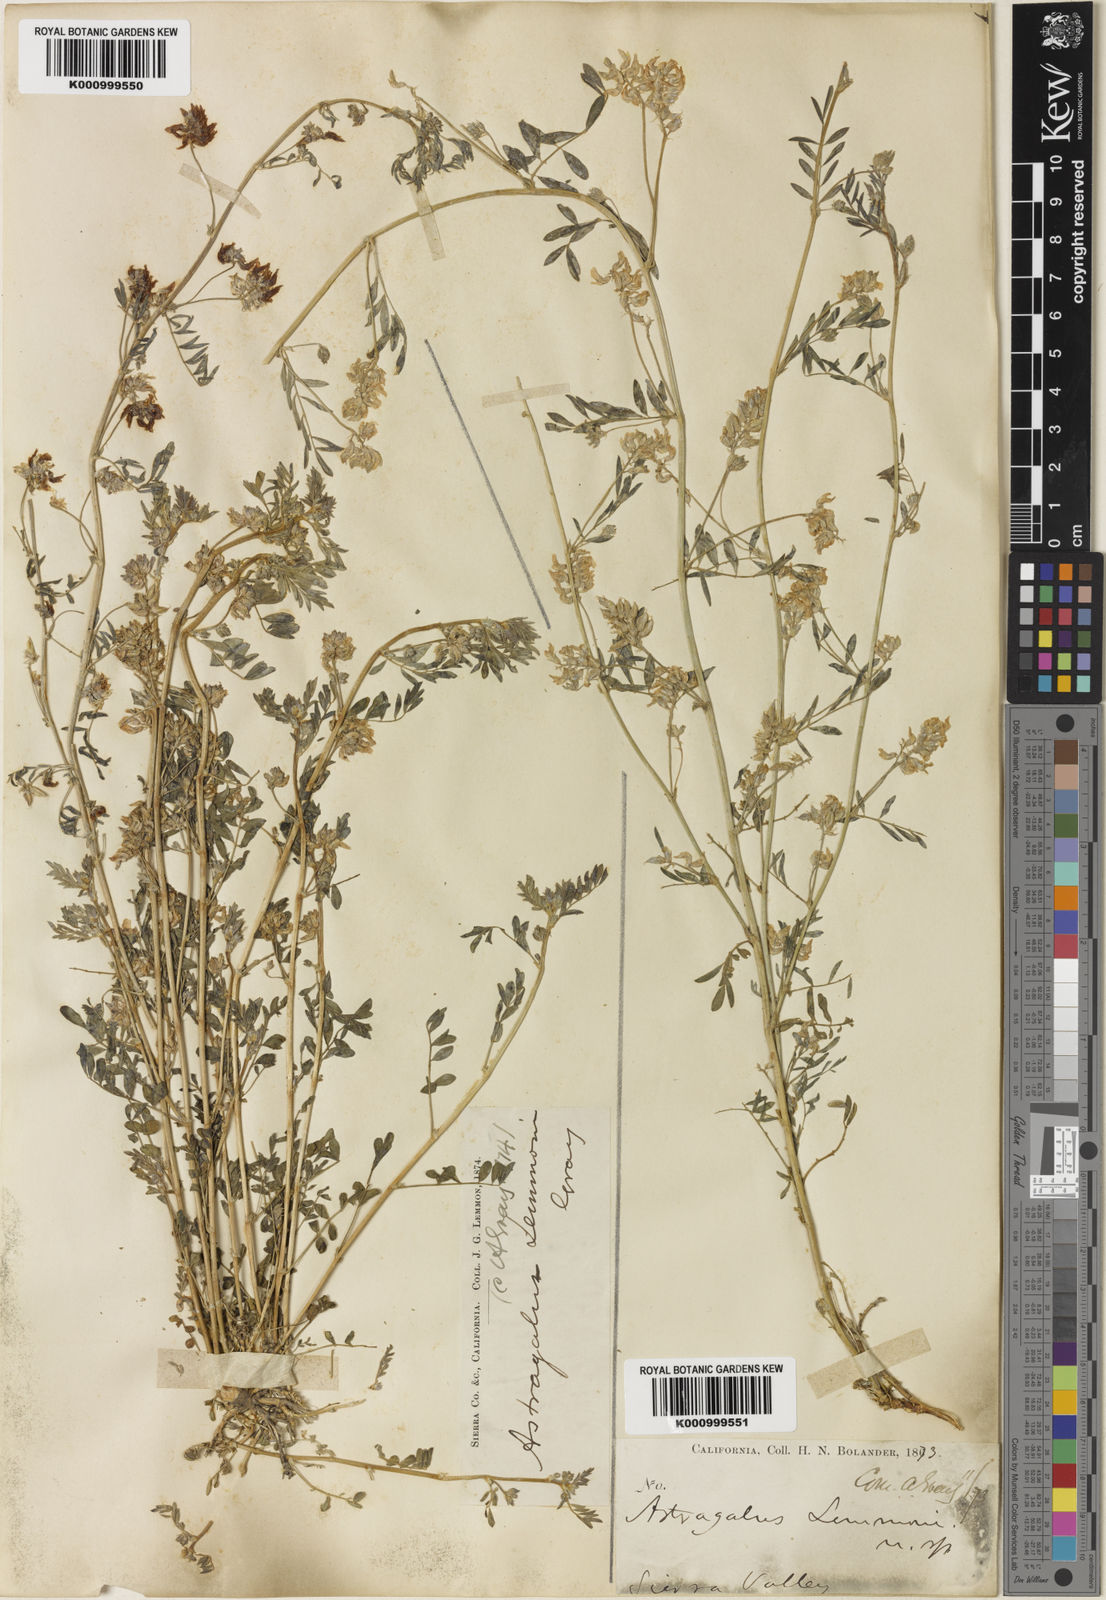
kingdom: Plantae
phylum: Tracheophyta
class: Magnoliopsida
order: Fabales
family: Fabaceae
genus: Astragalus
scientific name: Astragalus lemmonii
